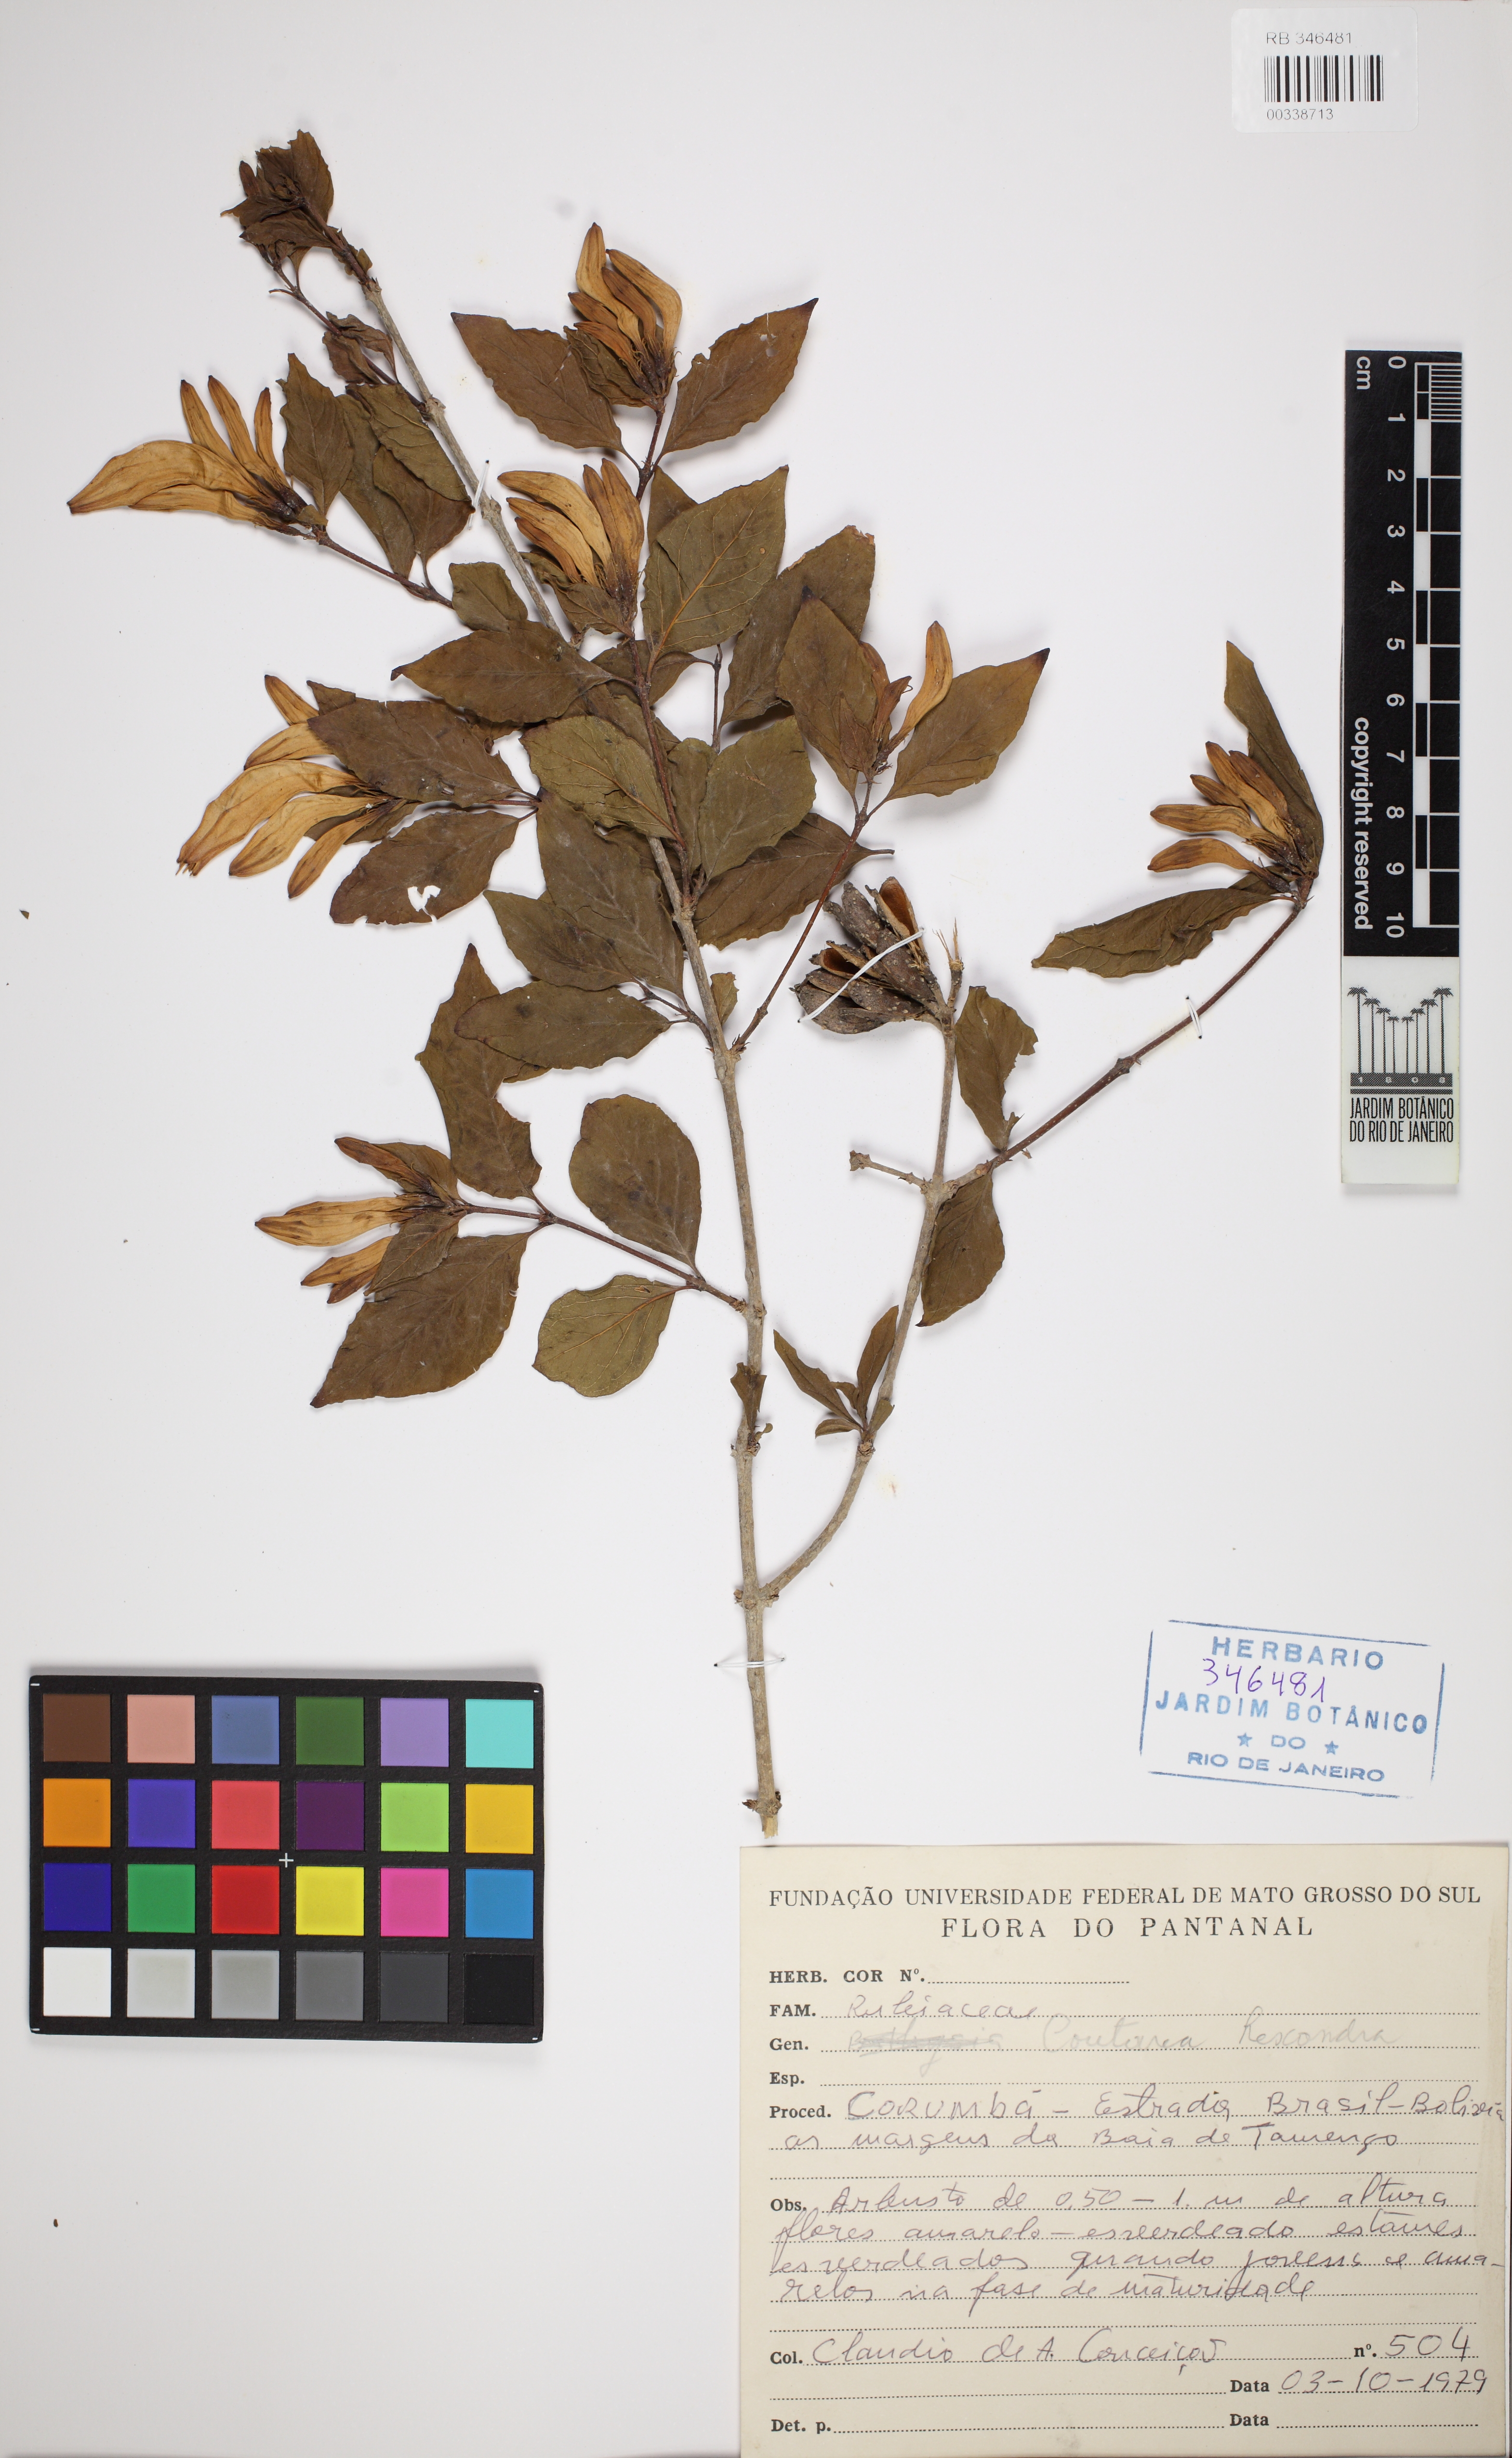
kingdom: Plantae
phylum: Tracheophyta
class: Magnoliopsida
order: Gentianales
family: Rubiaceae
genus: Coutarea
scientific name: Coutarea hexandra
